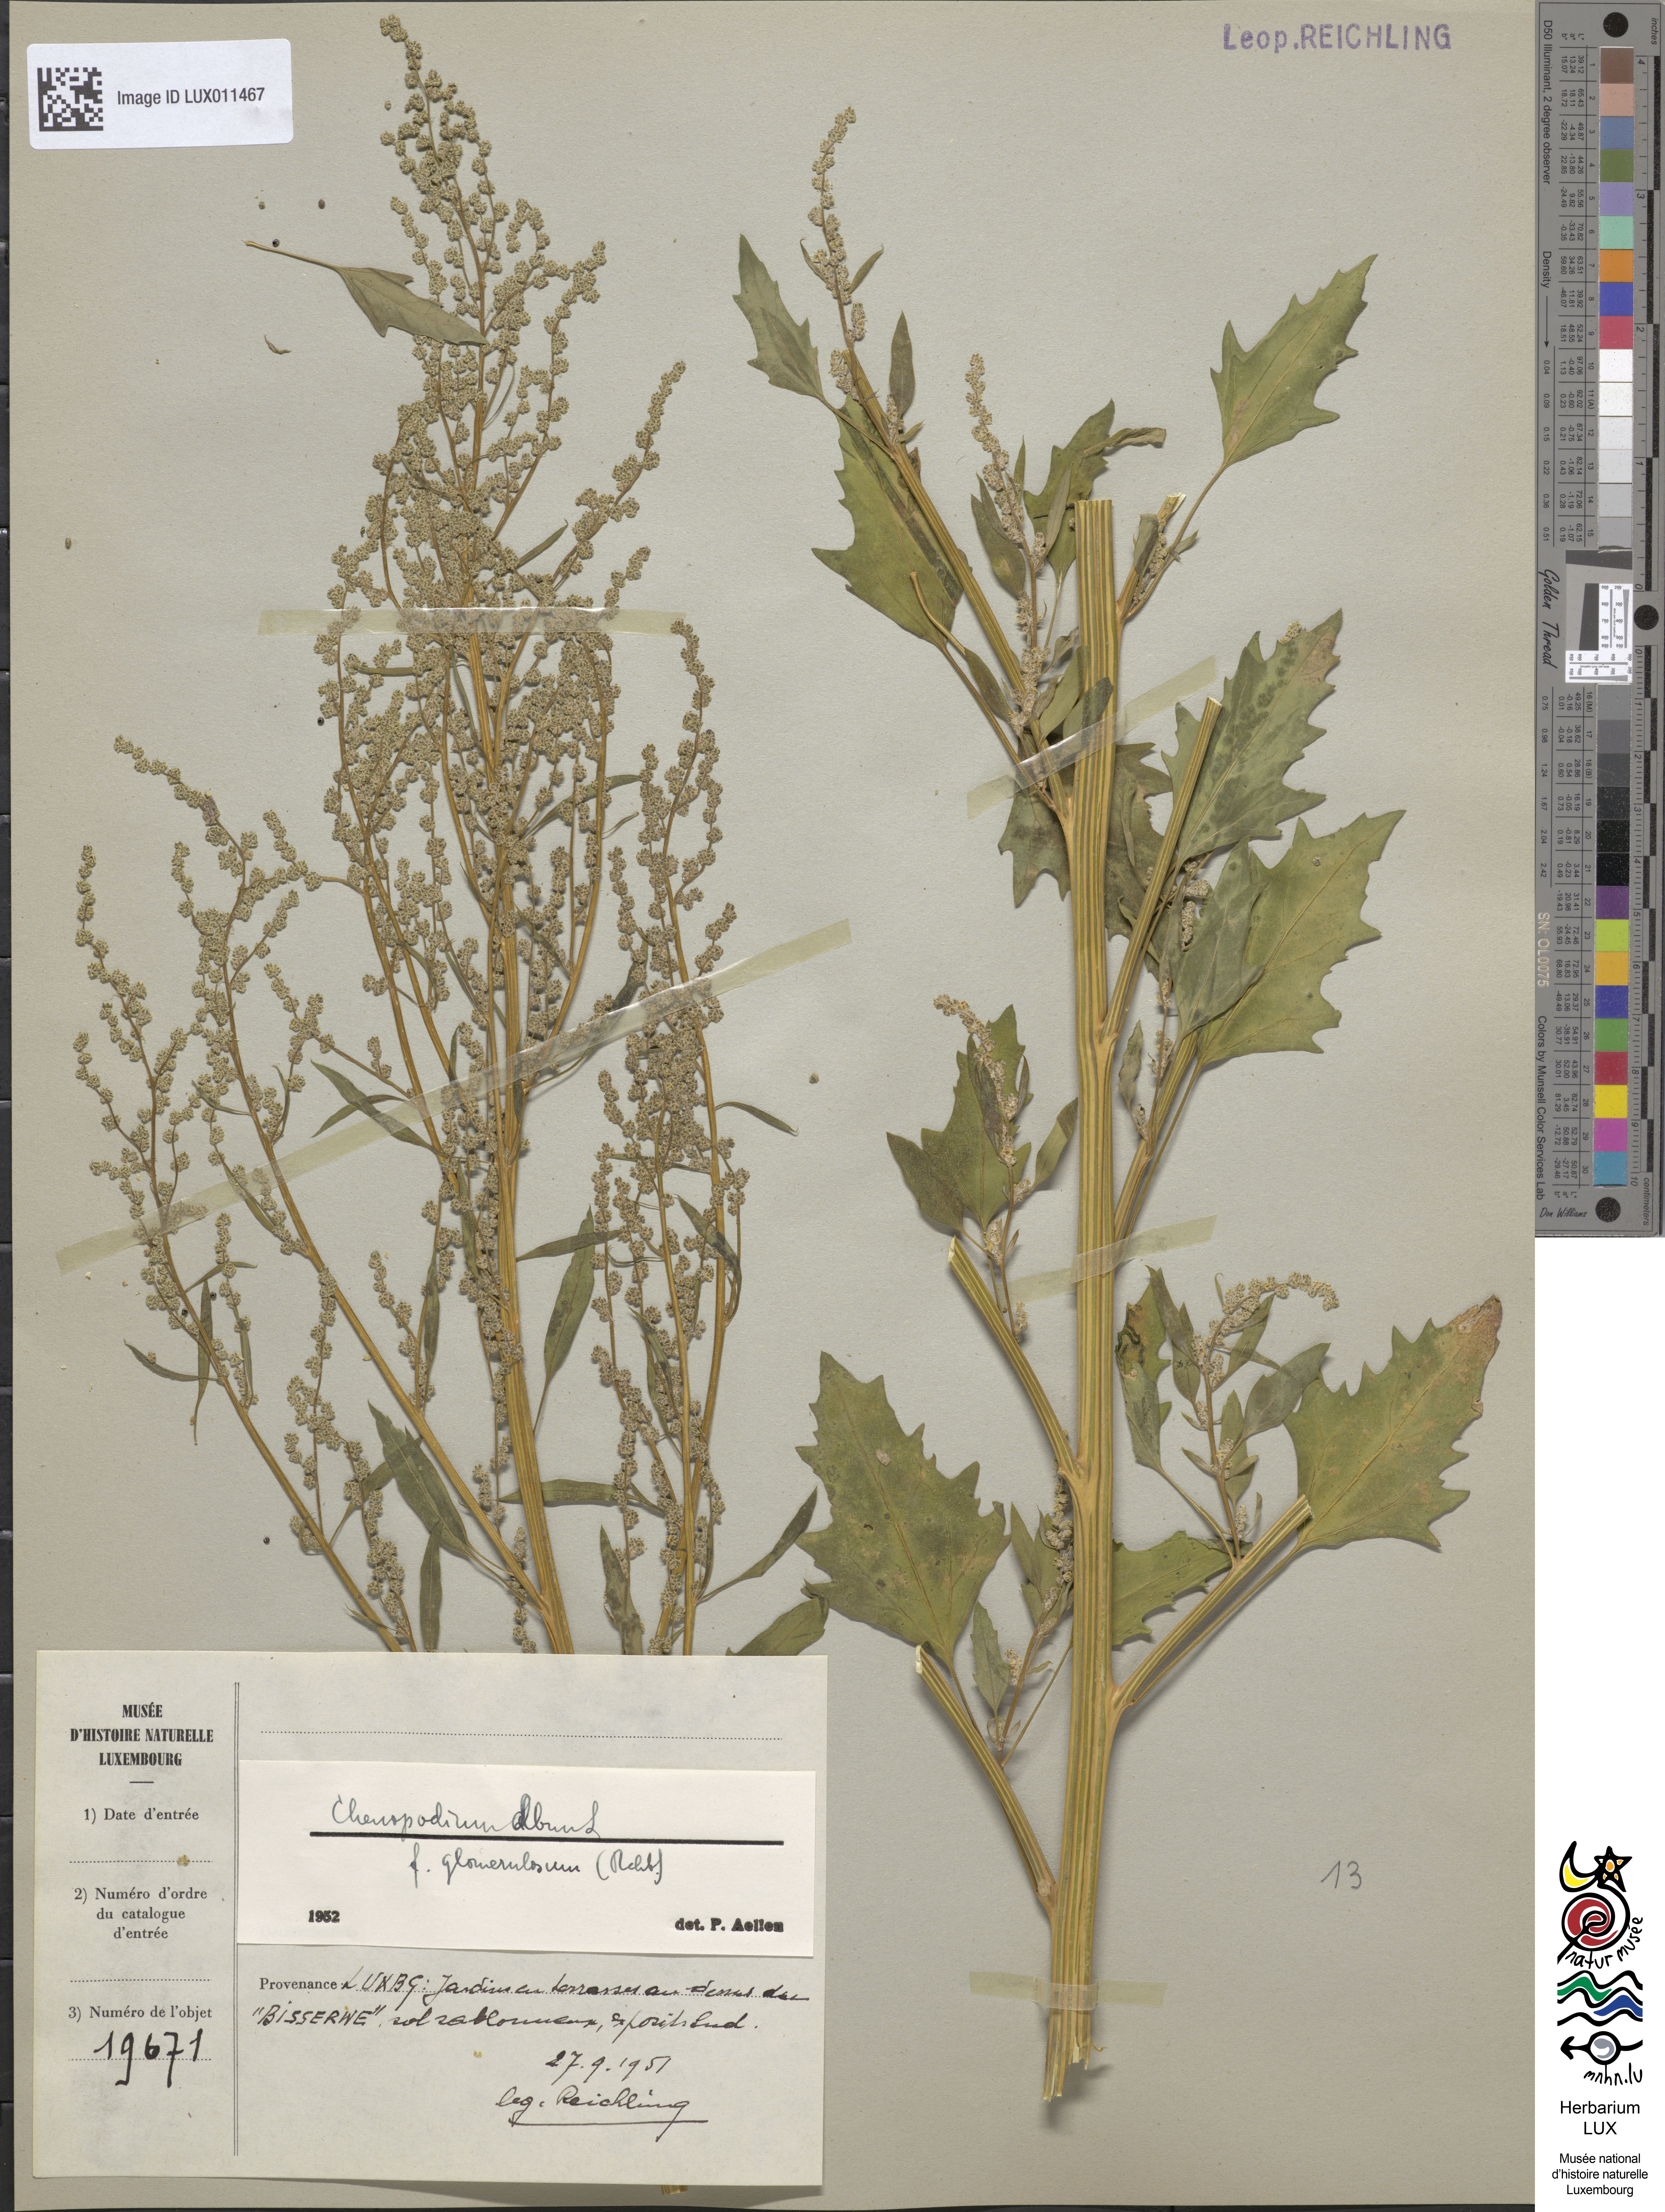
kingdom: Plantae
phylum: Tracheophyta
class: Magnoliopsida
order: Caryophyllales
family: Amaranthaceae
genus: Chenopodium
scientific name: Chenopodium album
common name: Fat-hen
